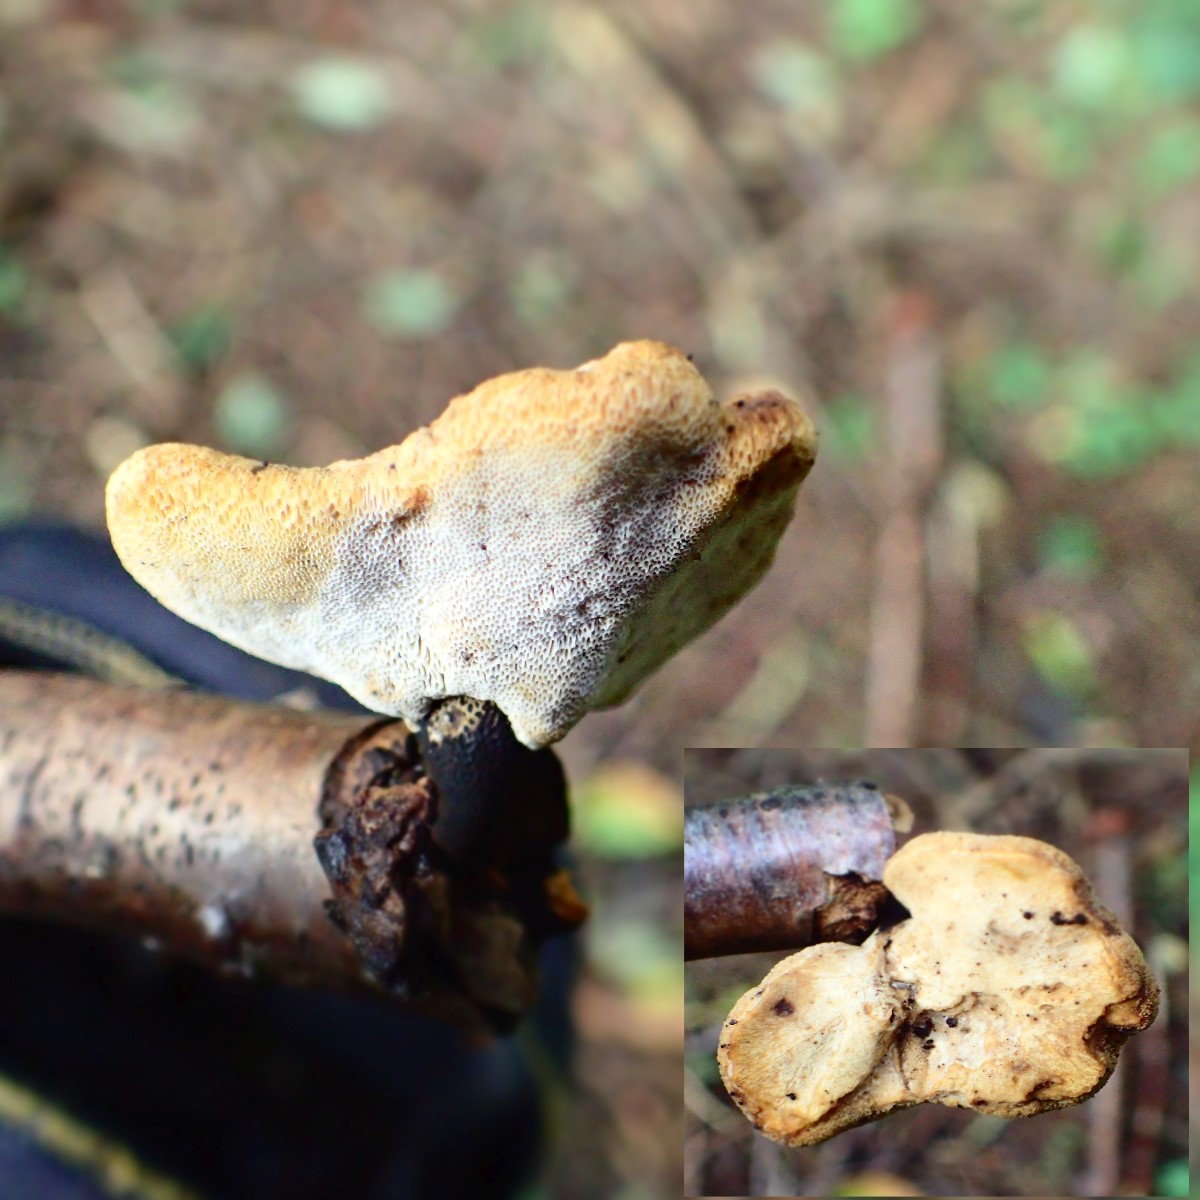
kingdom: Fungi
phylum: Basidiomycota
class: Agaricomycetes
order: Polyporales
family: Polyporaceae
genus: Cerioporus
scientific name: Cerioporus varius
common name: foranderlig stilkporesvamp
